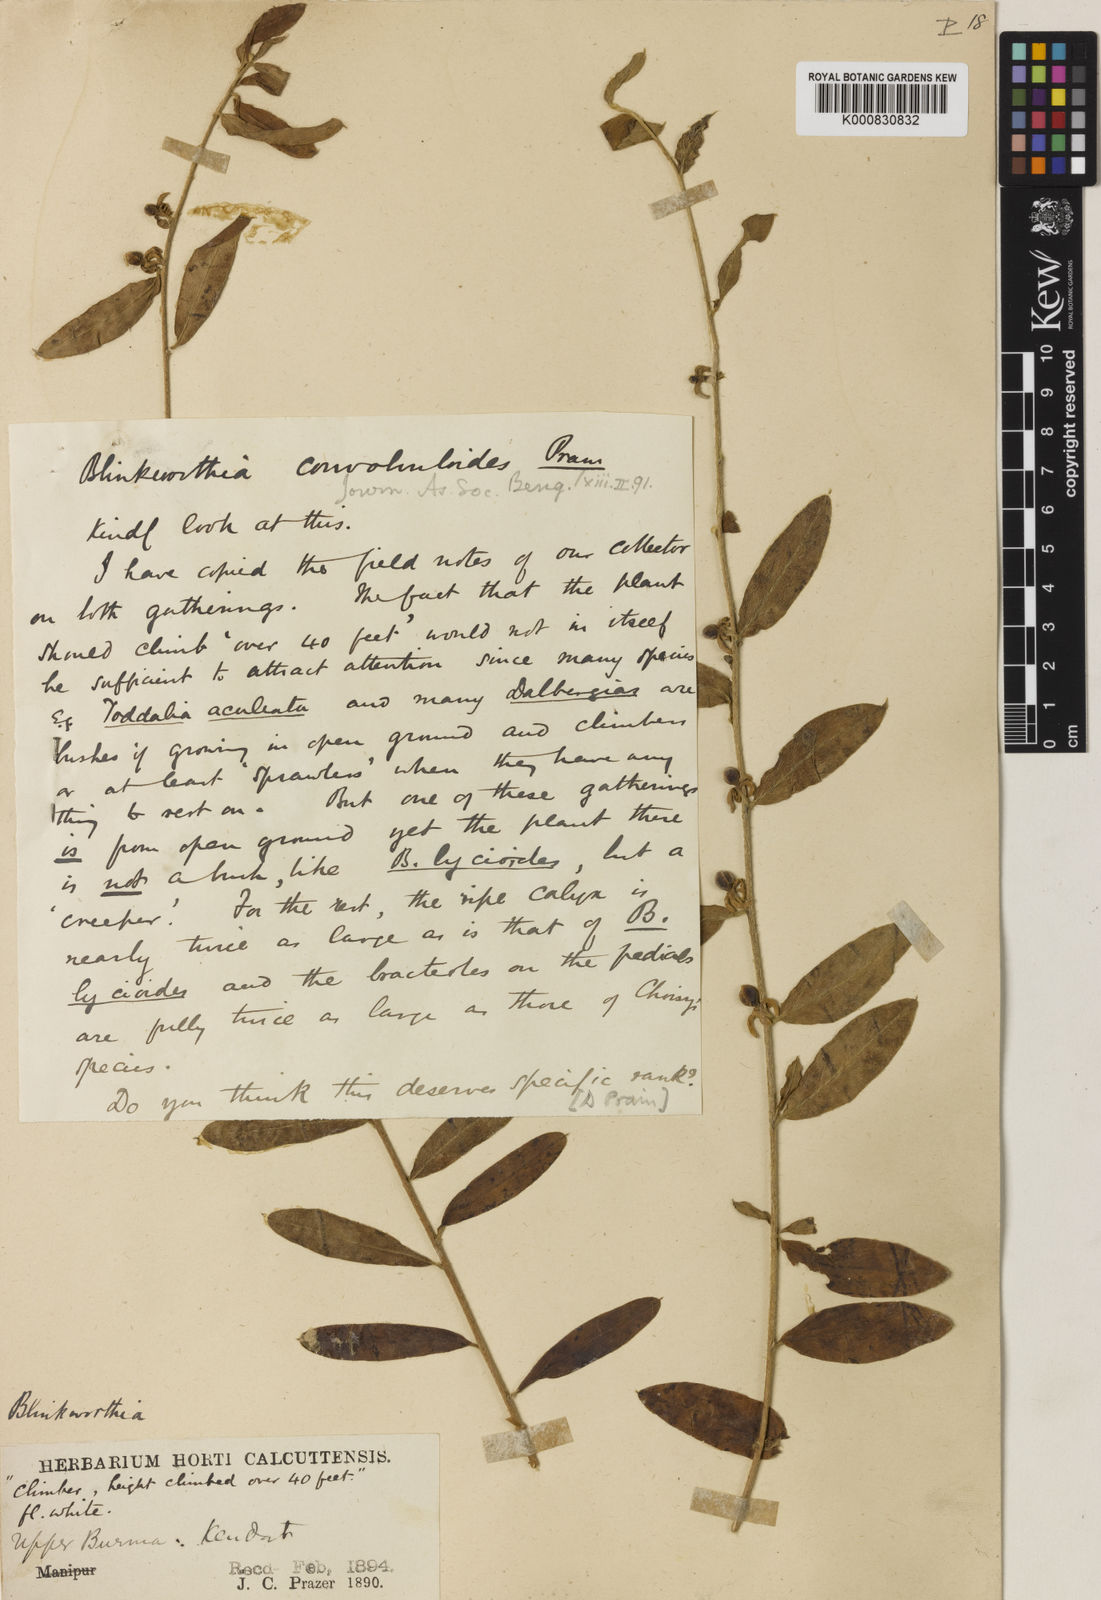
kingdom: Plantae
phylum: Tracheophyta
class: Magnoliopsida
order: Solanales
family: Convolvulaceae
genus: Blinkworthia
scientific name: Blinkworthia convolvuloides
